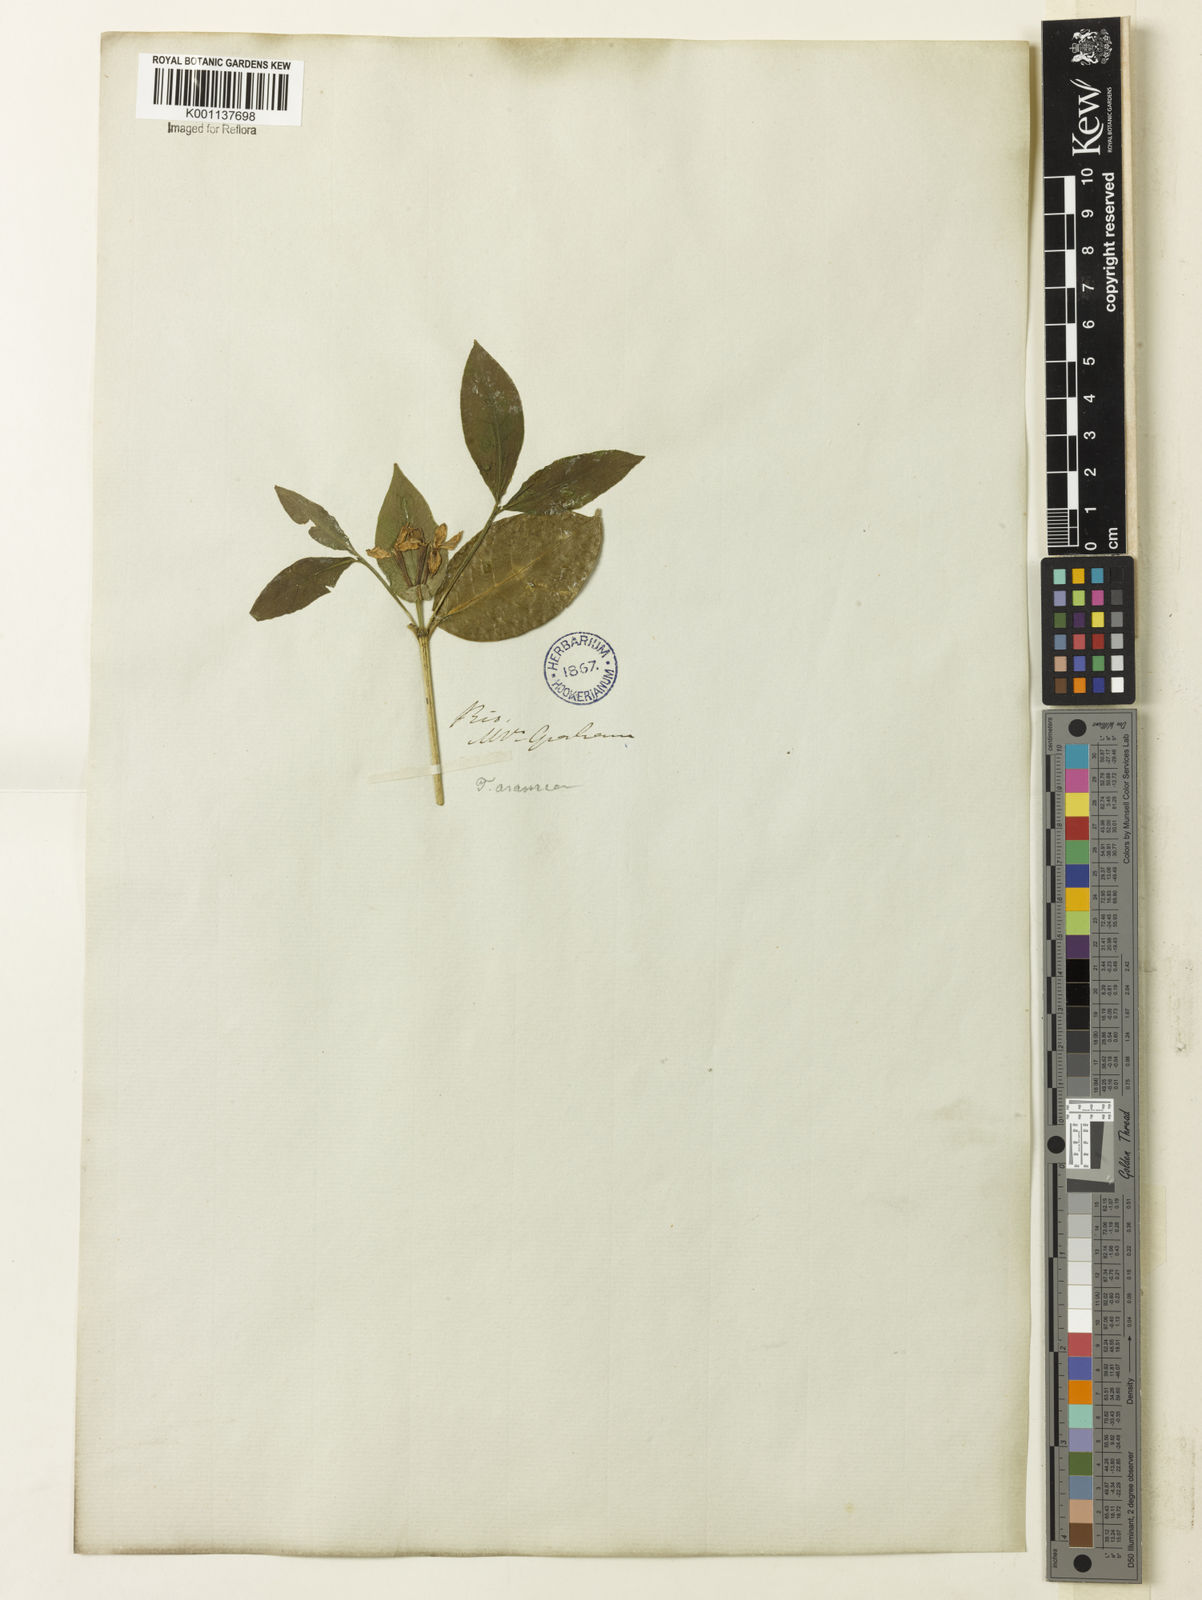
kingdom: Plantae
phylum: Tracheophyta
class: Magnoliopsida
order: Gentianales
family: Rubiaceae
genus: Coussarea
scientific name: Coussarea
